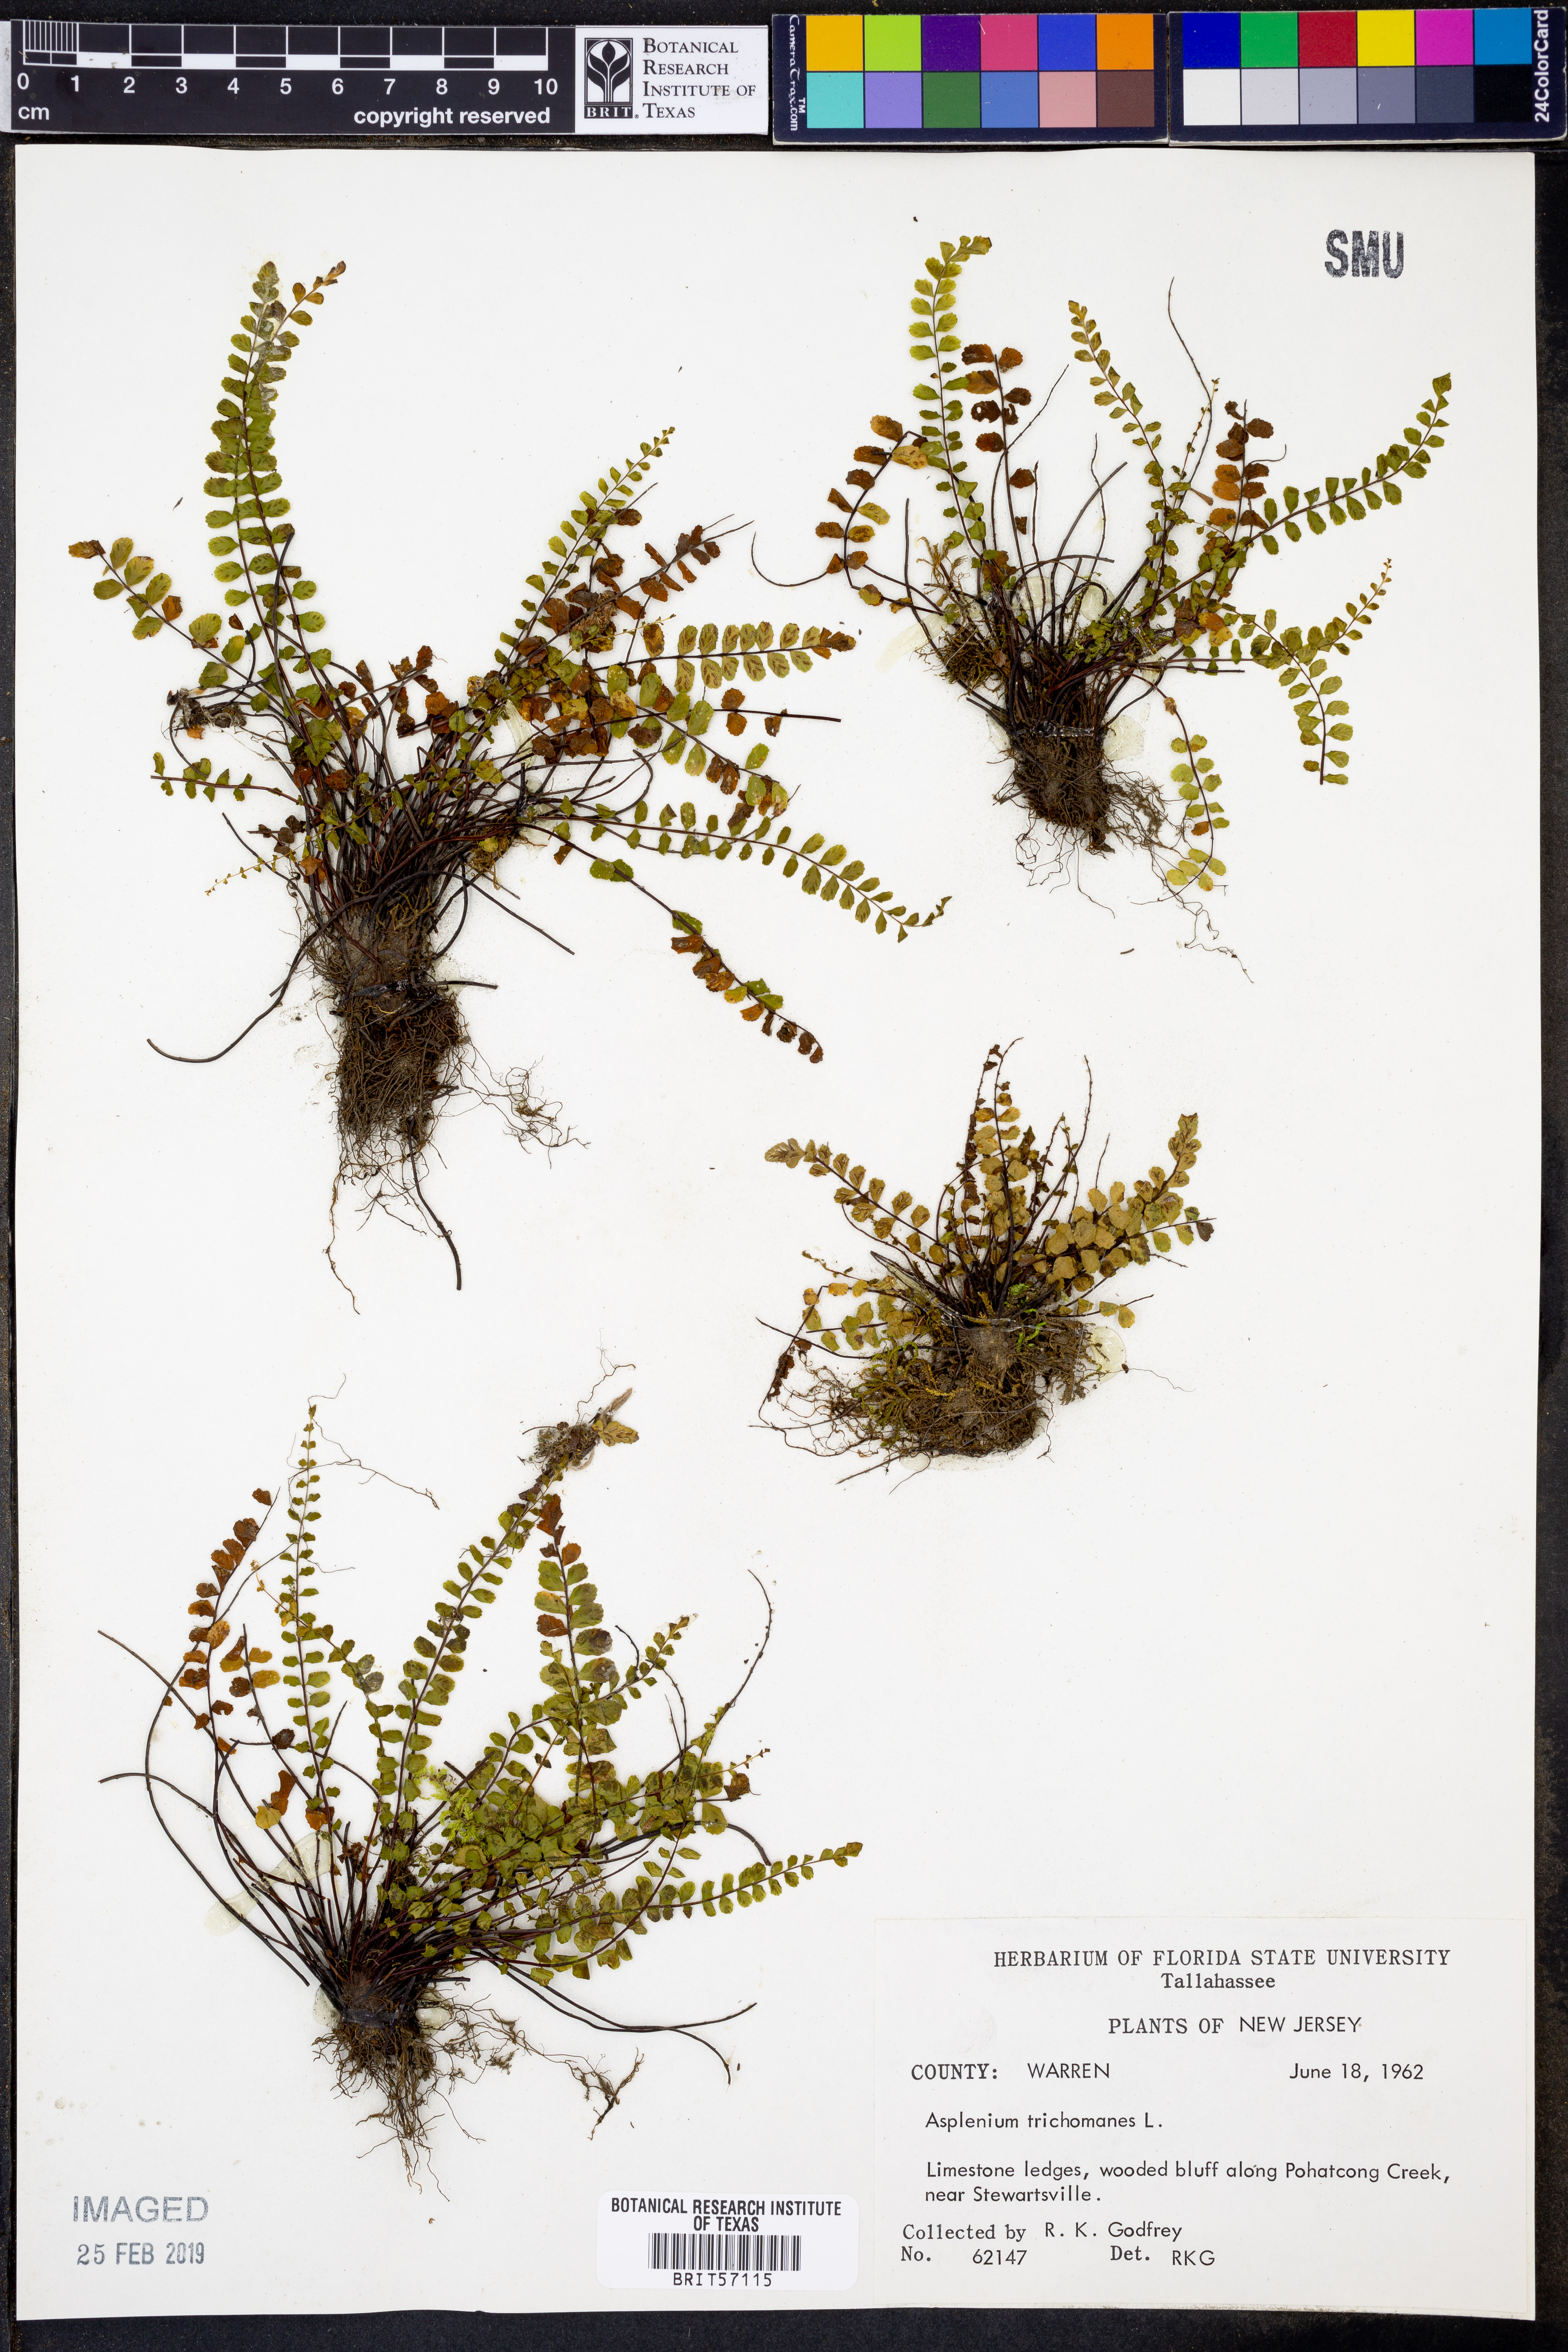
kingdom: Plantae
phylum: Tracheophyta
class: Polypodiopsida
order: Polypodiales
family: Aspleniaceae
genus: Asplenium
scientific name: Asplenium trichomanes
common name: Maidenhair spleenwort
